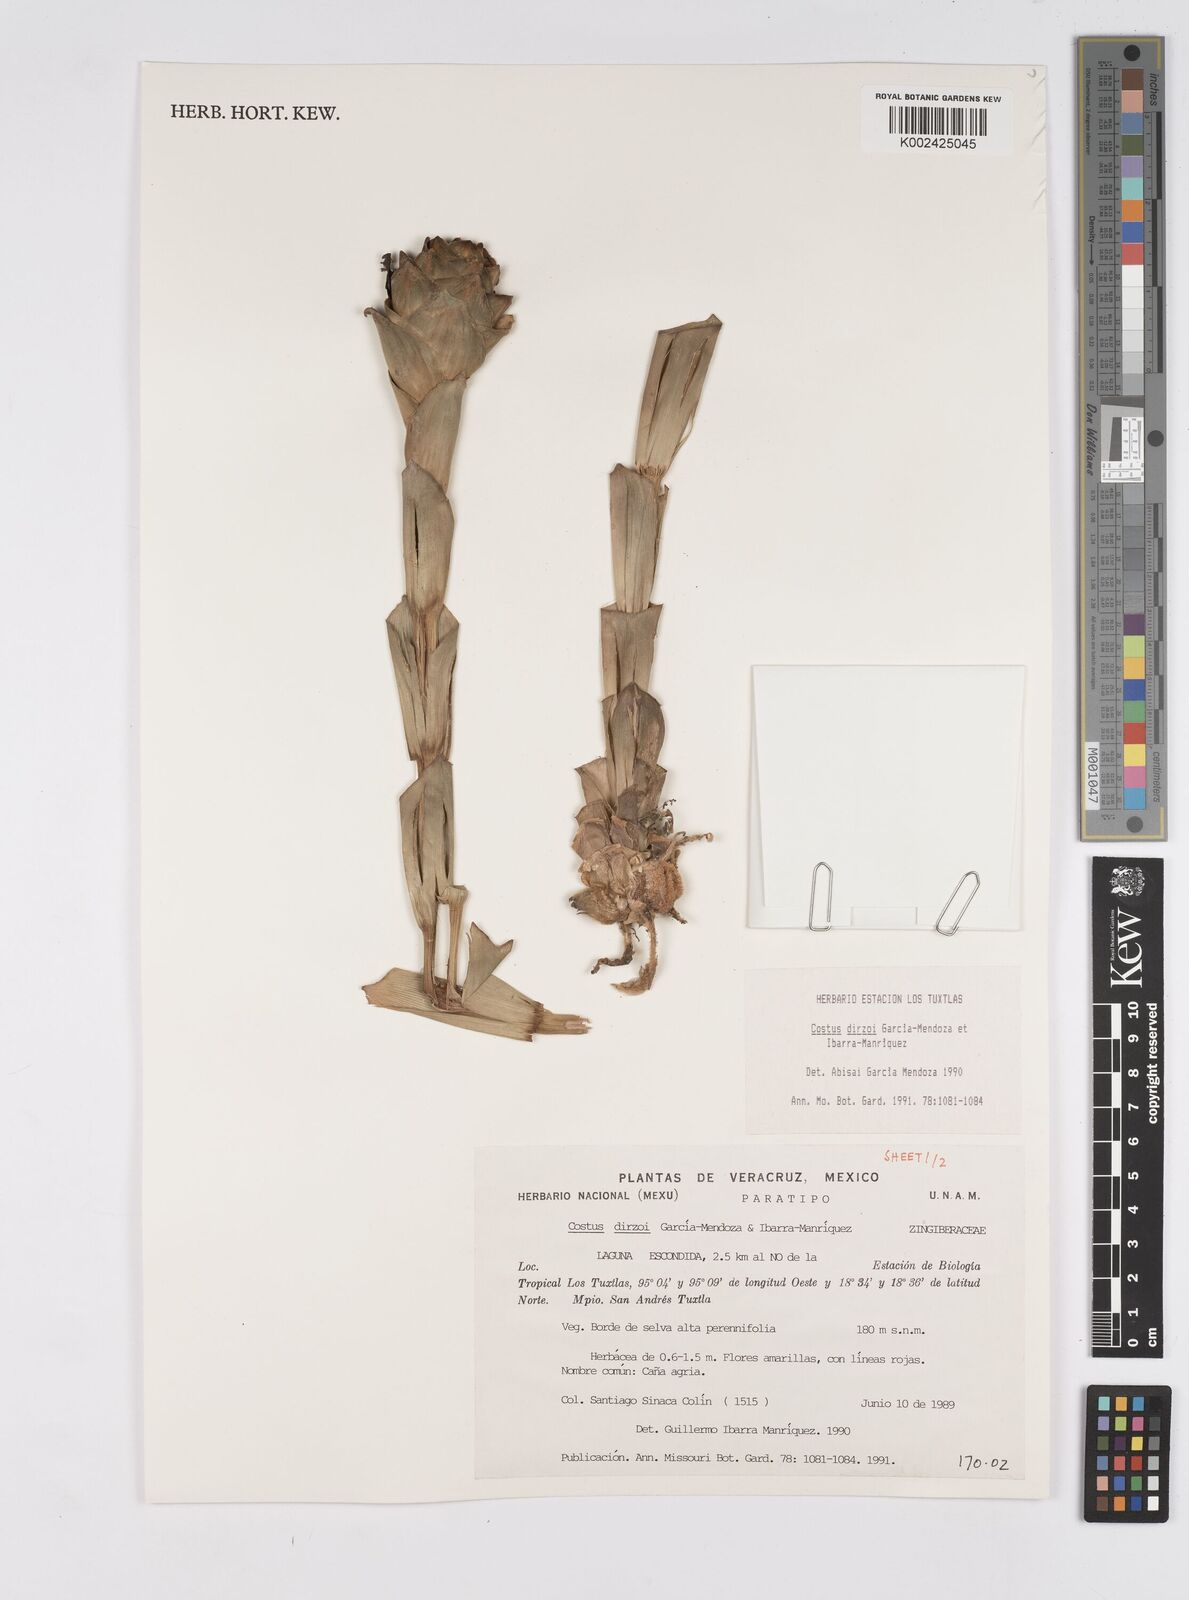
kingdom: Plantae
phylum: Tracheophyta
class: Liliopsida
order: Zingiberales
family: Costaceae
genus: Costus
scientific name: Costus dirzoi
